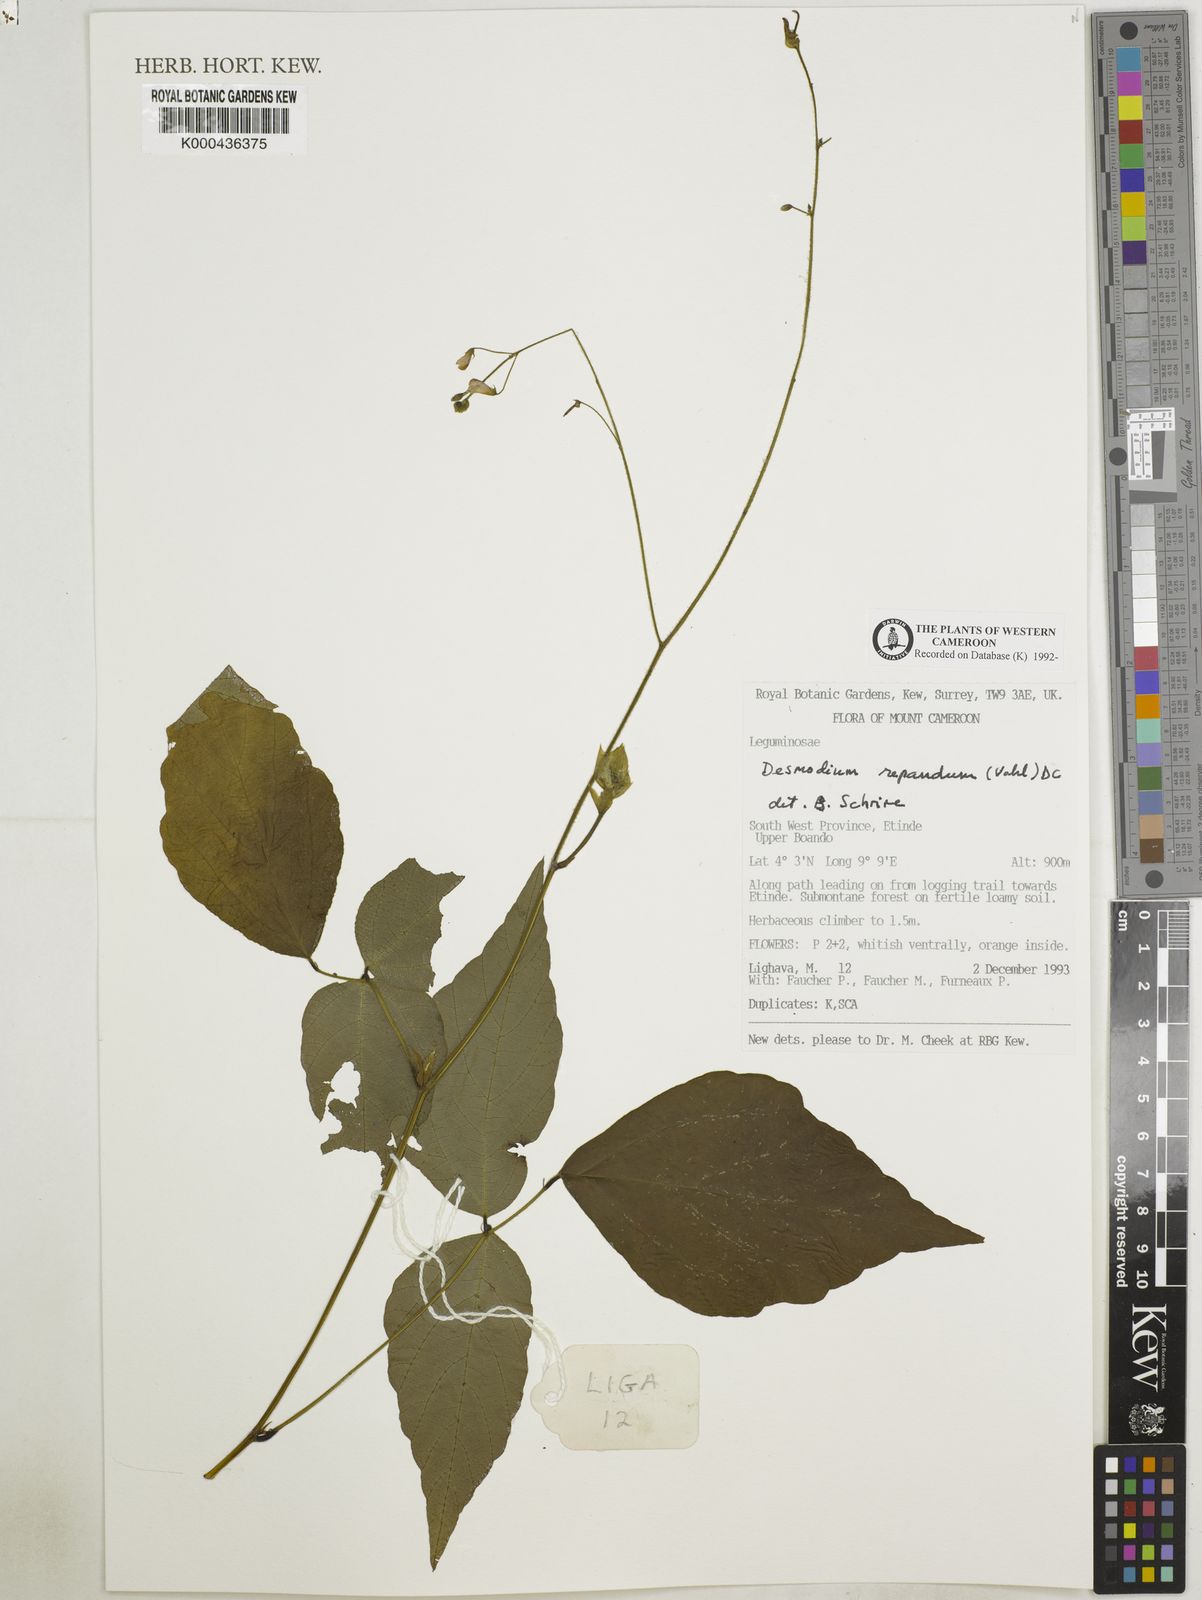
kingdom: Plantae
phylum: Tracheophyta
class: Magnoliopsida
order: Fabales
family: Fabaceae
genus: Desmodium
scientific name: Desmodium
